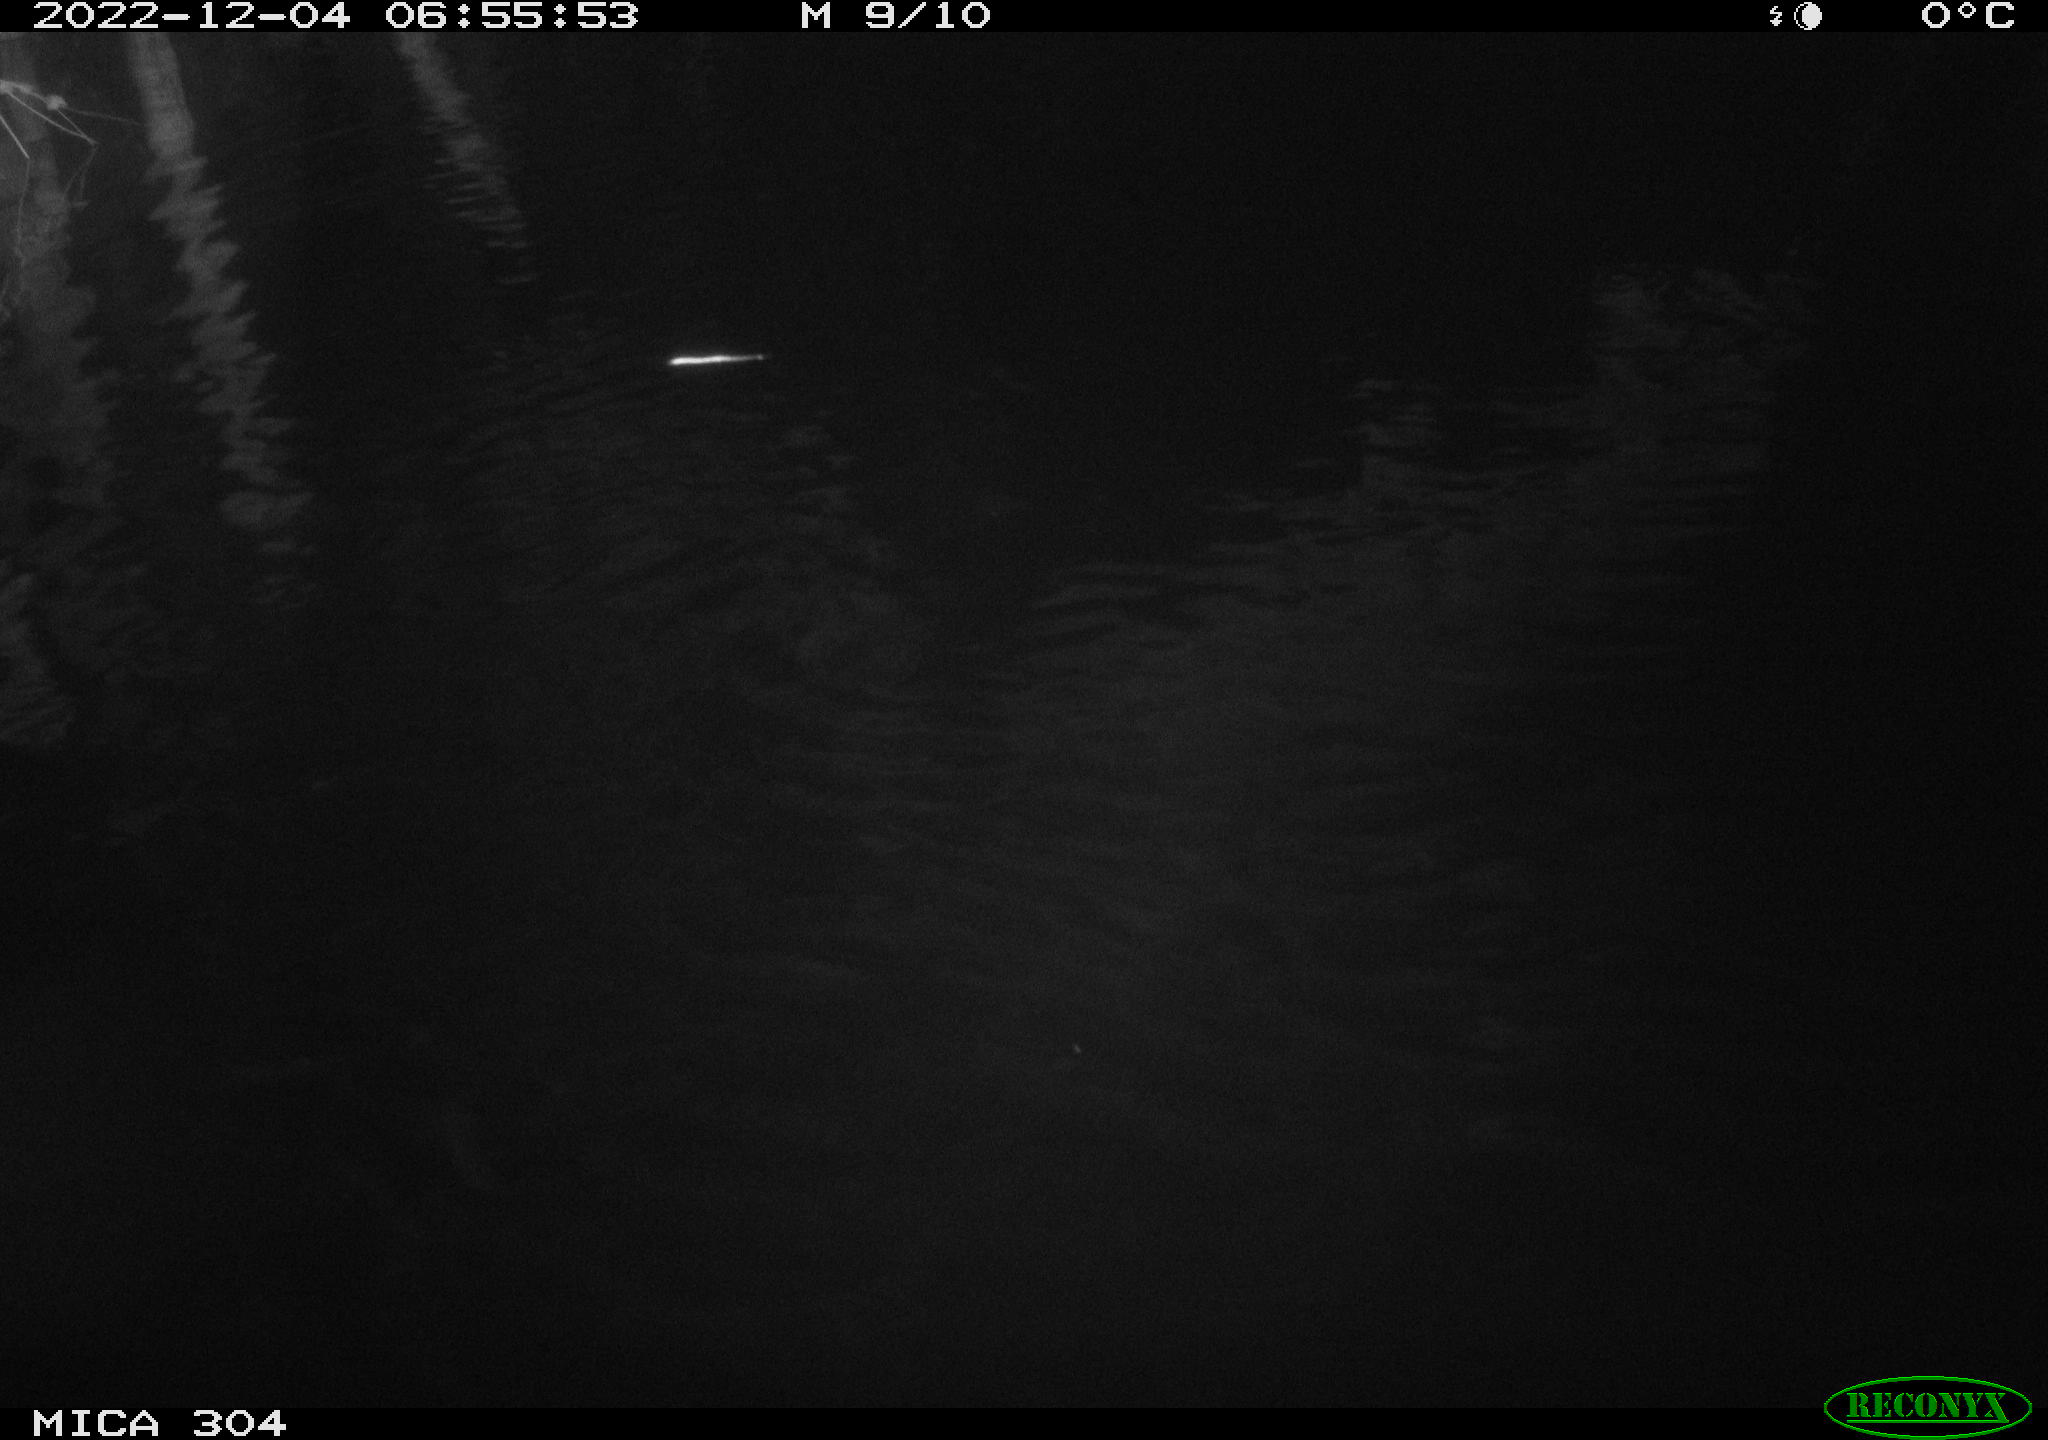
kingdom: Animalia
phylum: Chordata
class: Aves
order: Anseriformes
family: Anatidae
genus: Anas
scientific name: Anas
